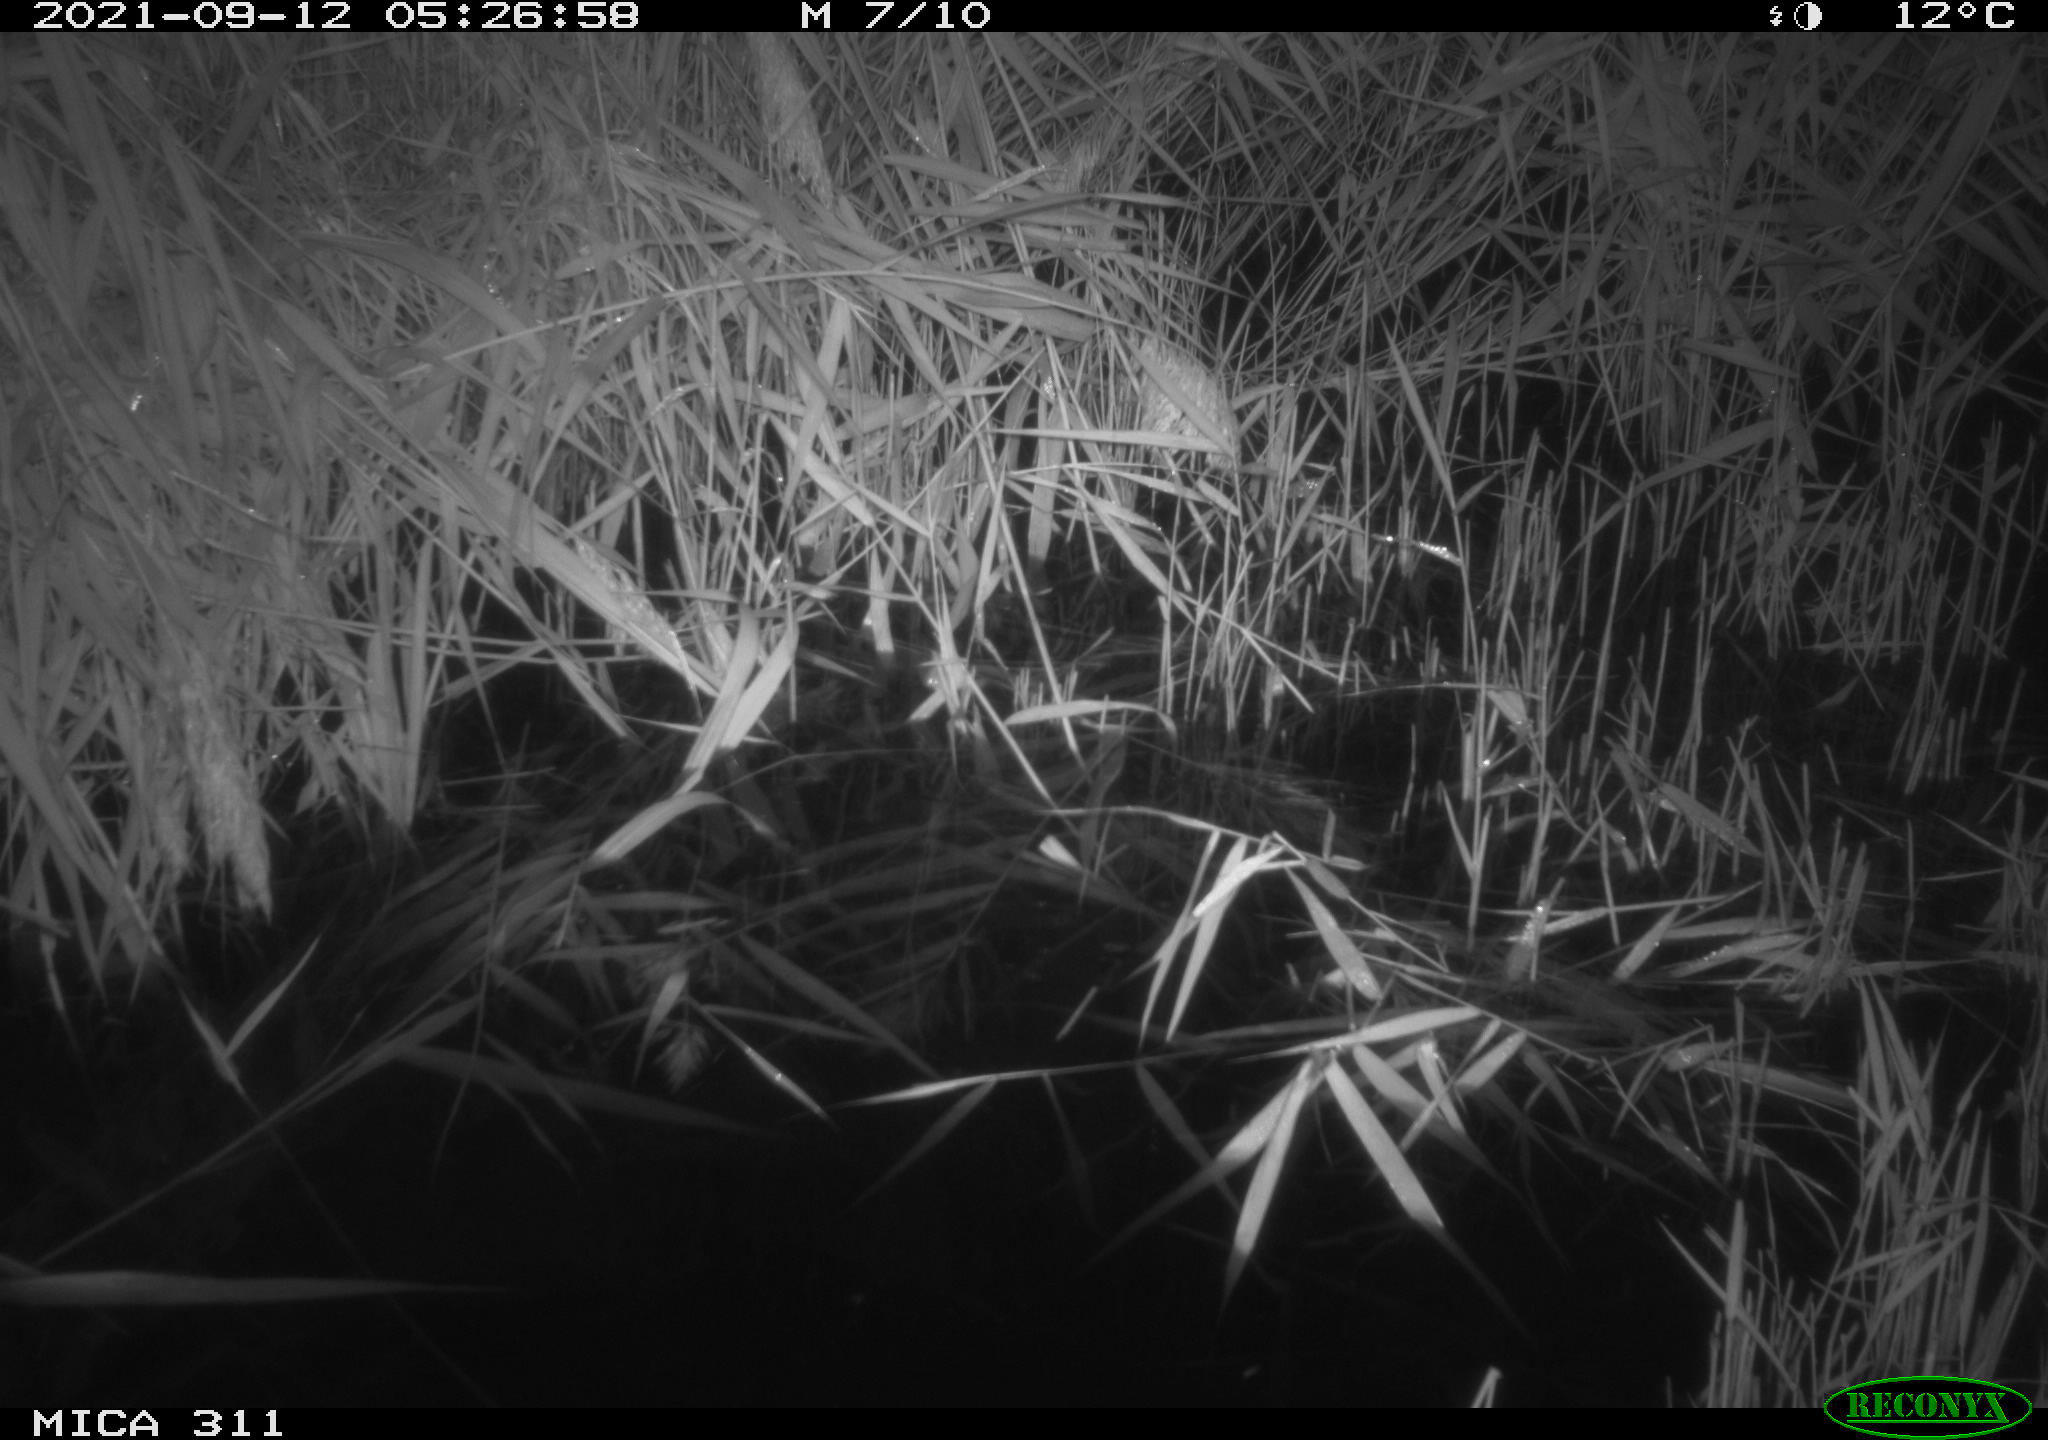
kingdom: Animalia
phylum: Chordata
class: Mammalia
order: Rodentia
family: Muridae
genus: Rattus
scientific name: Rattus norvegicus
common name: Brown rat
